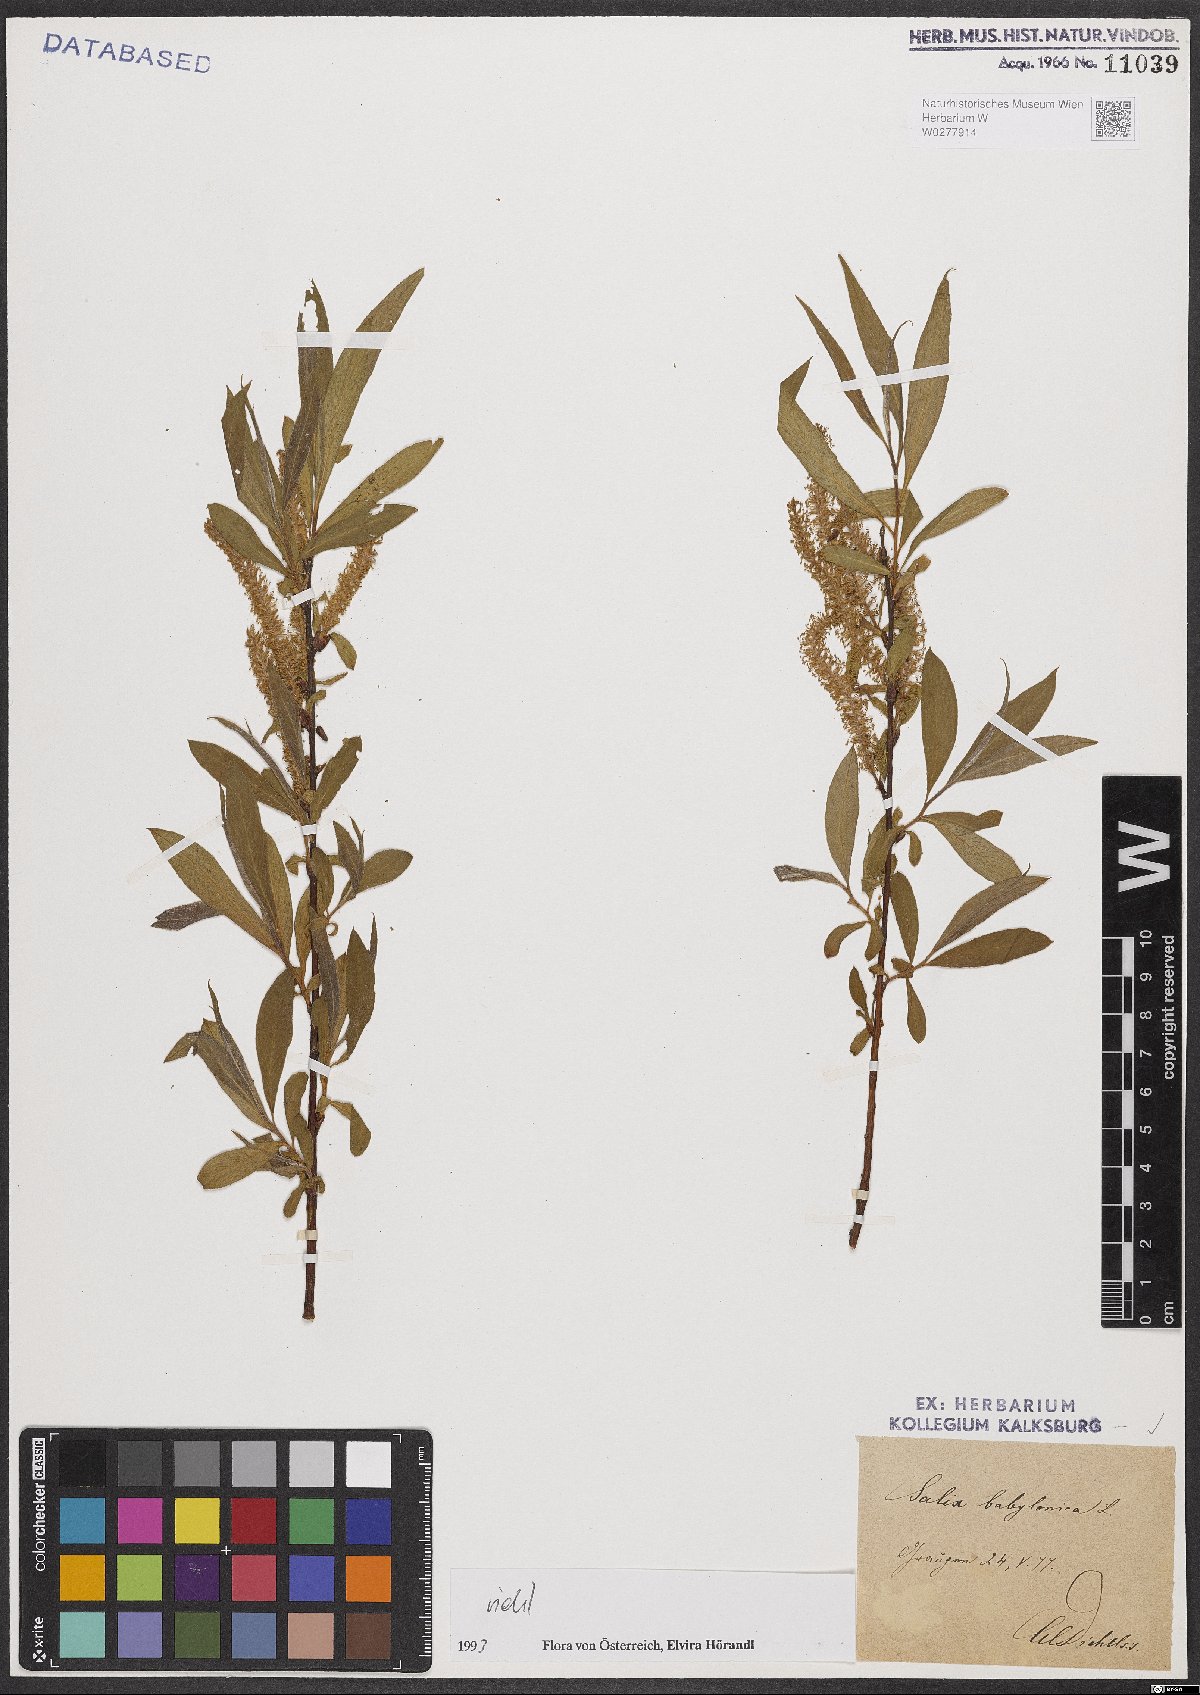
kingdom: Plantae
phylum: Tracheophyta
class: Magnoliopsida
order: Malpighiales
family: Salicaceae
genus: Salix
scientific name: Salix babylonica
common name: Weeping willow
